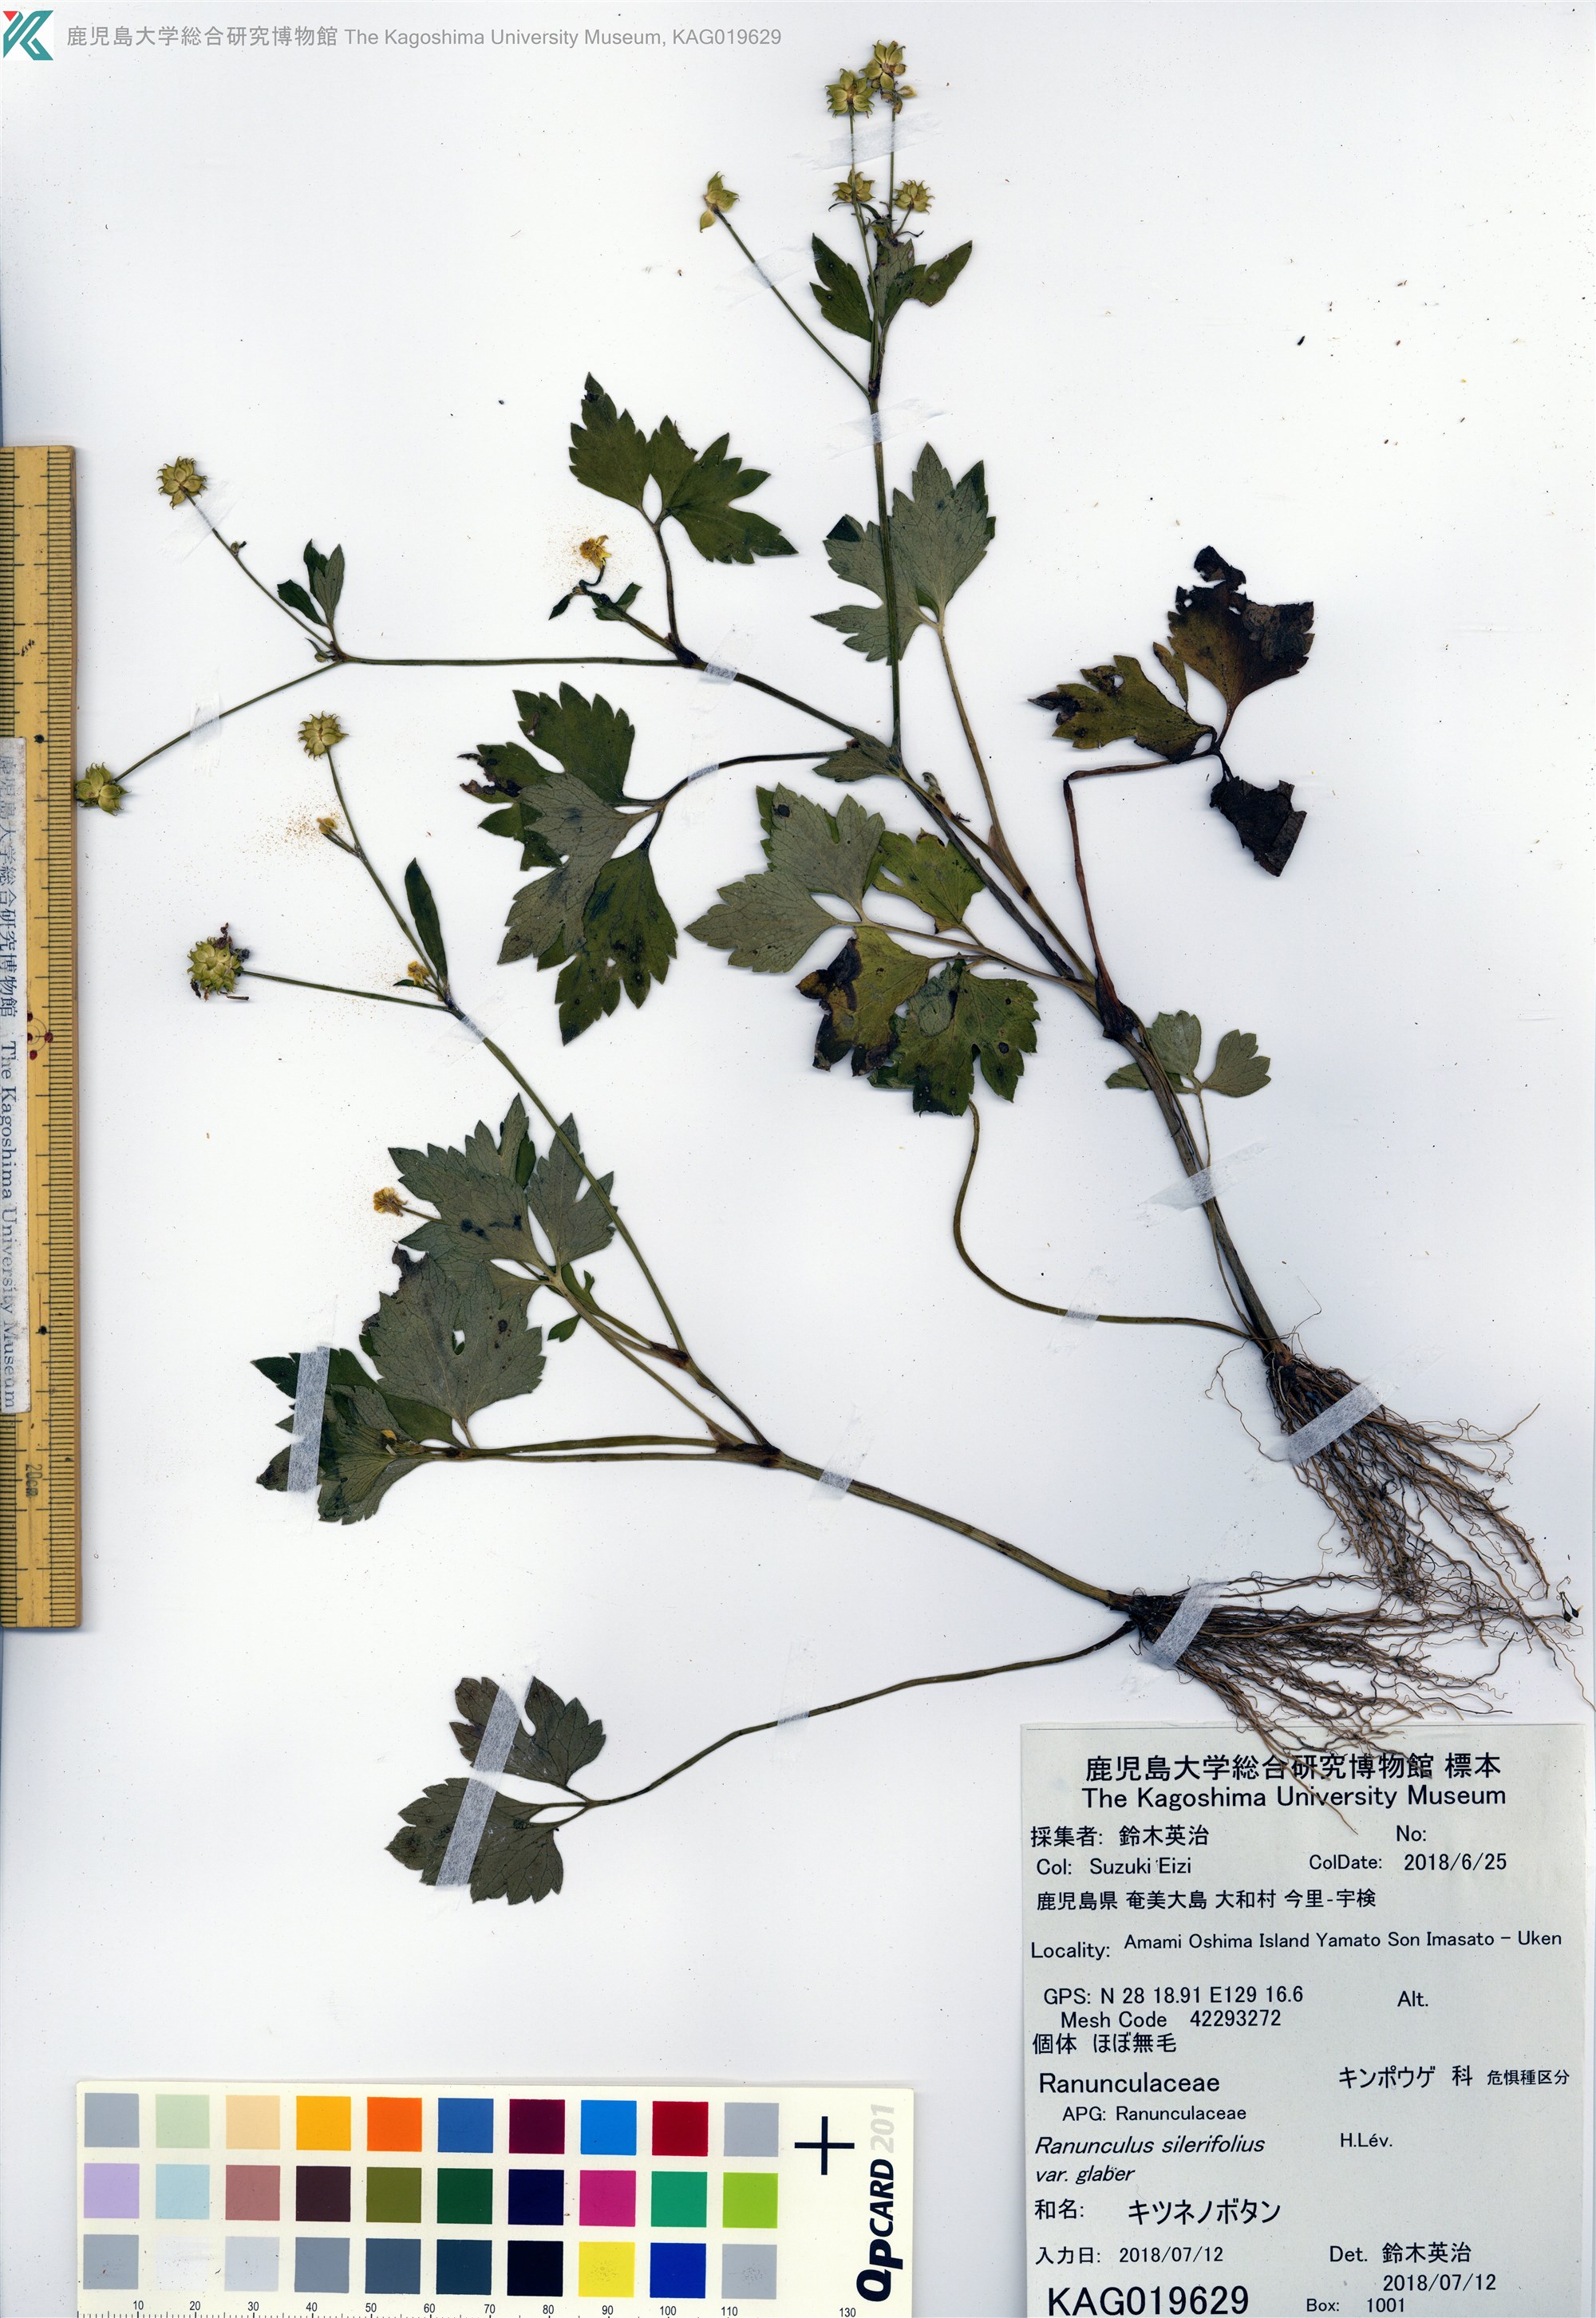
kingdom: Plantae
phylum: Tracheophyta
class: Magnoliopsida
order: Ranunculales
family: Ranunculaceae
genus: Ranunculus
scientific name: Ranunculus silerifolius
